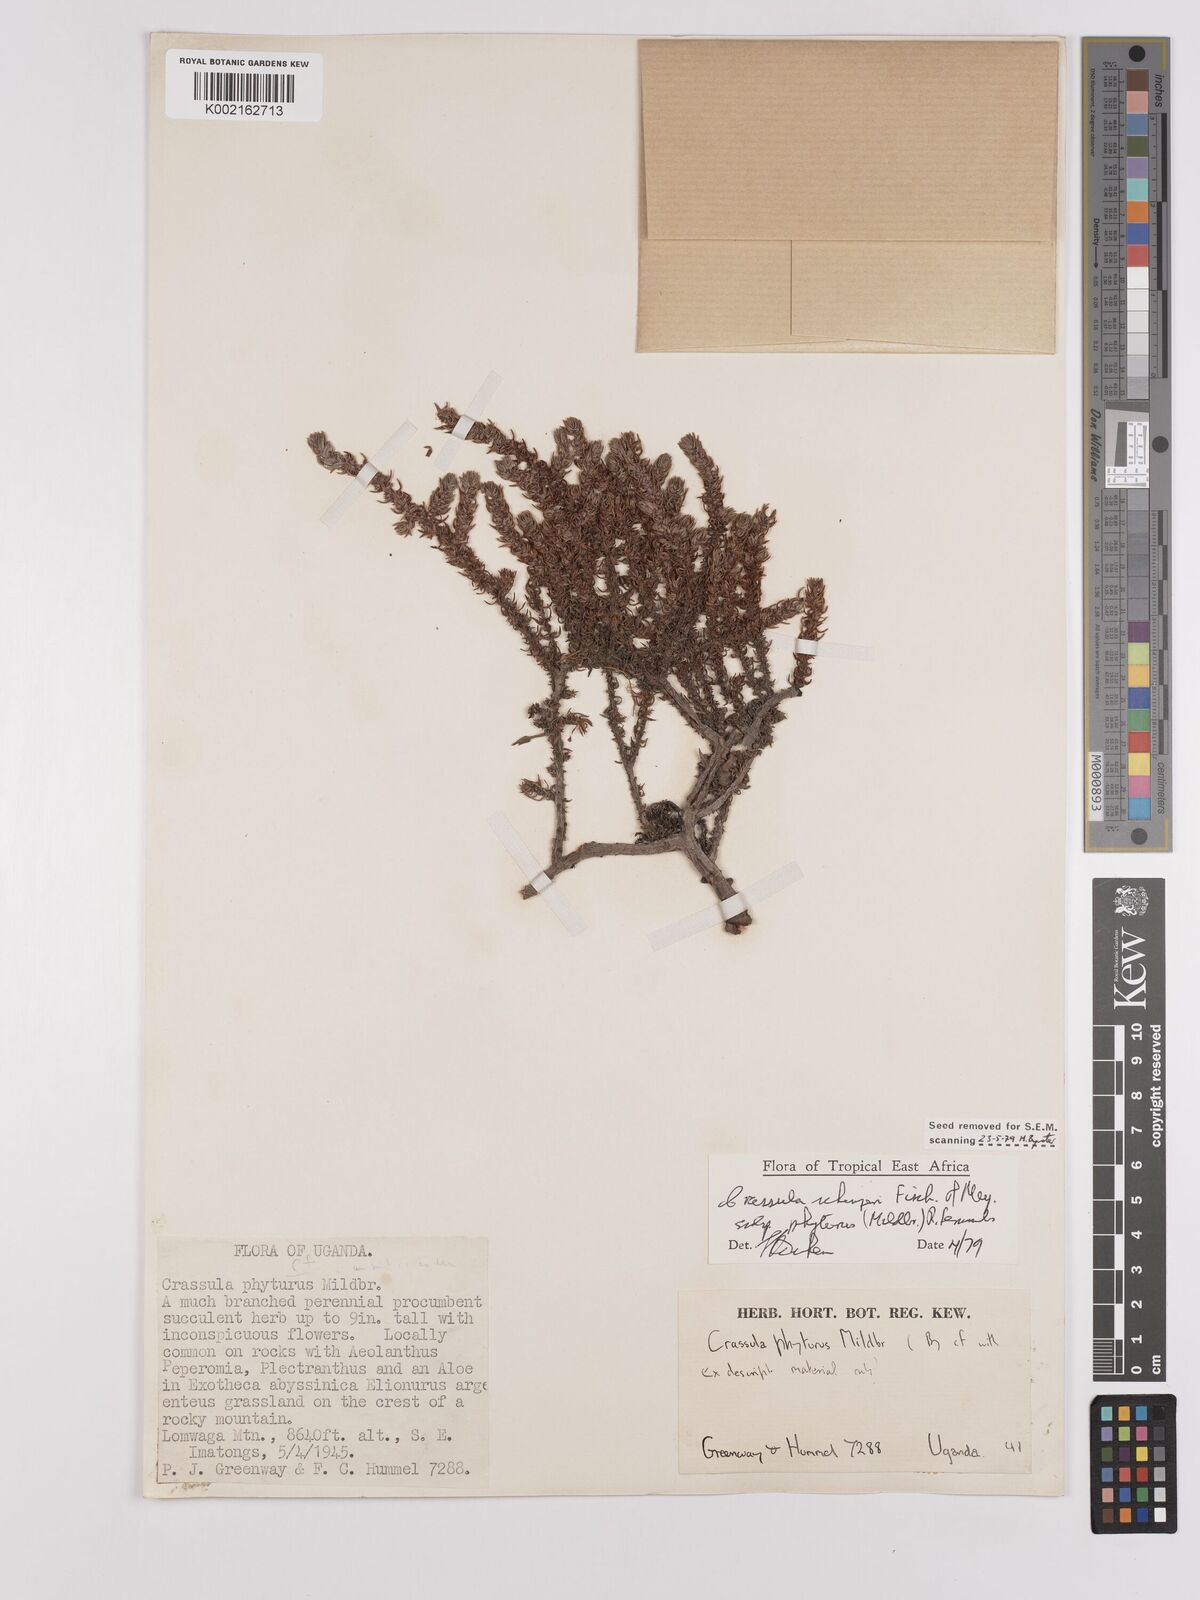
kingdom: Plantae
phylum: Tracheophyta
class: Magnoliopsida
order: Saxifragales
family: Crassulaceae
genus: Crassula
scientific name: Crassula schimperi
